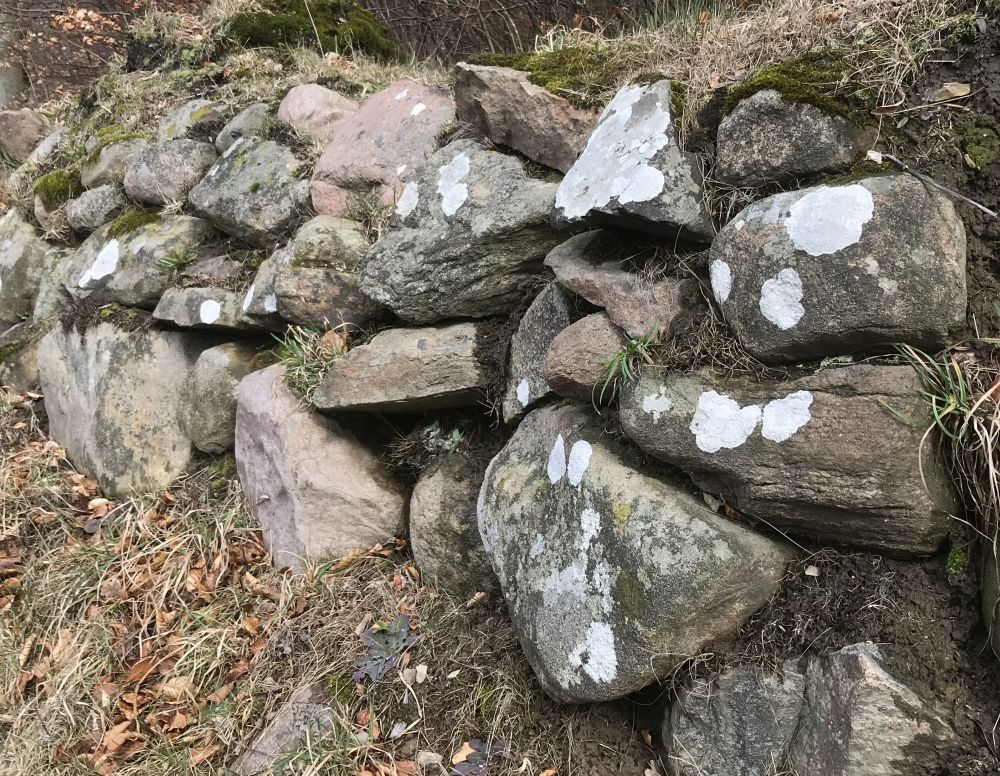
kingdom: Fungi
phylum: Ascomycota
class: Lecanoromycetes
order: Lecanorales
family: Lecanoraceae
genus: Glaucomaria
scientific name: Glaucomaria rupicola
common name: stengærde-kantskivelav
